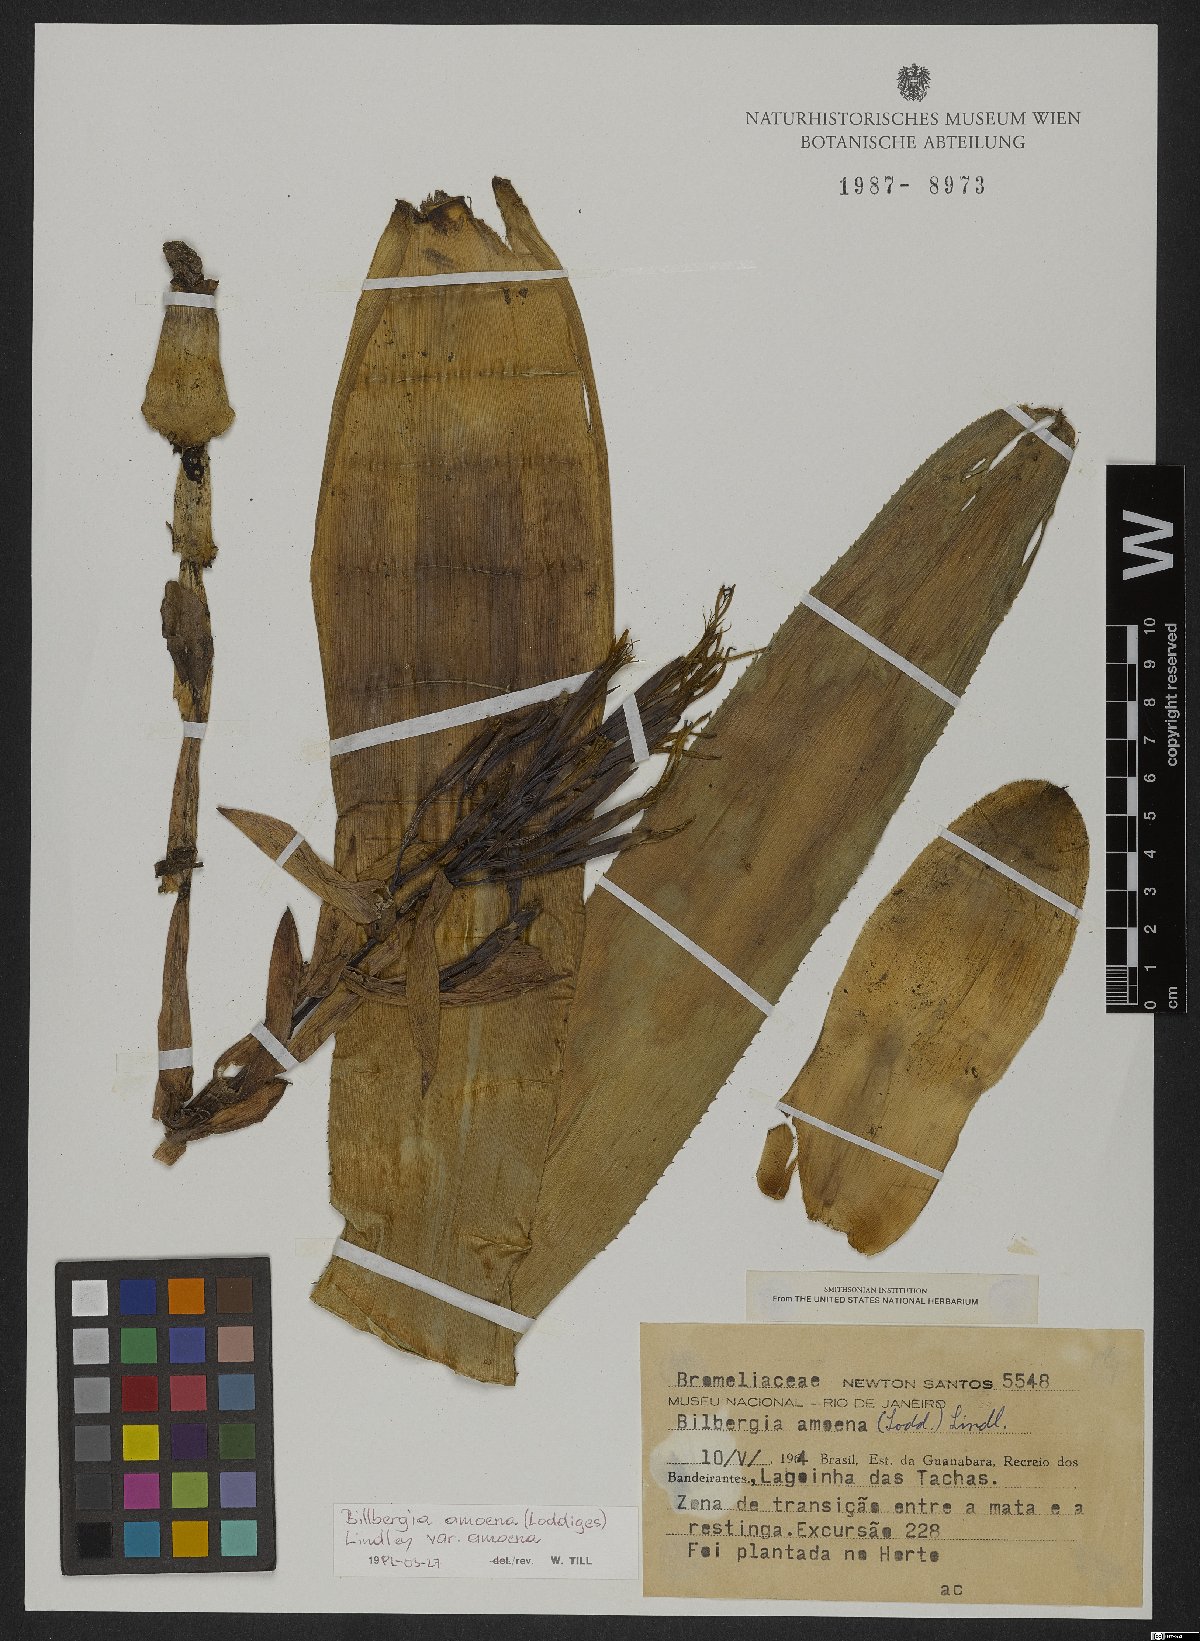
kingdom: Plantae
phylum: Tracheophyta
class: Liliopsida
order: Poales
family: Bromeliaceae
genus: Billbergia
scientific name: Billbergia amoena
